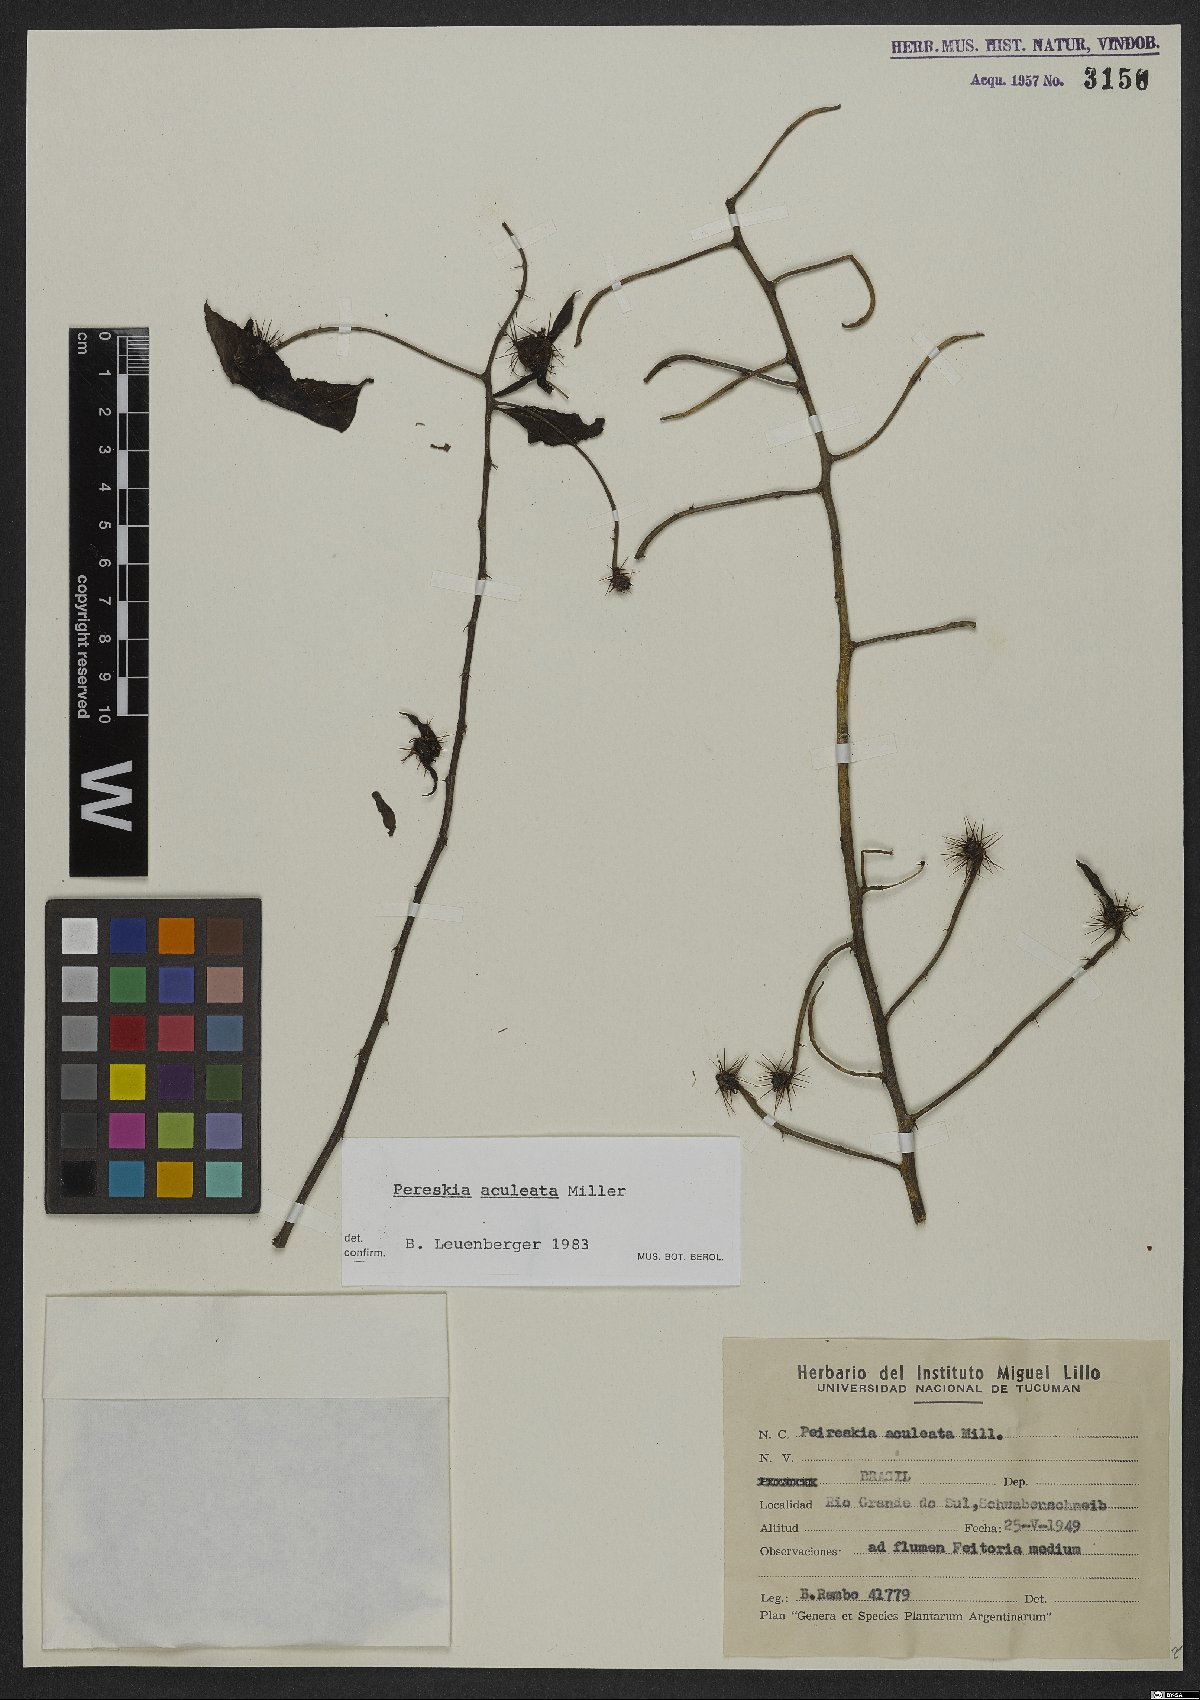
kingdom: Plantae
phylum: Tracheophyta
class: Magnoliopsida
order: Caryophyllales
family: Cactaceae
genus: Pereskia
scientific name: Pereskia aculeata
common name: Barbados gooseberry
